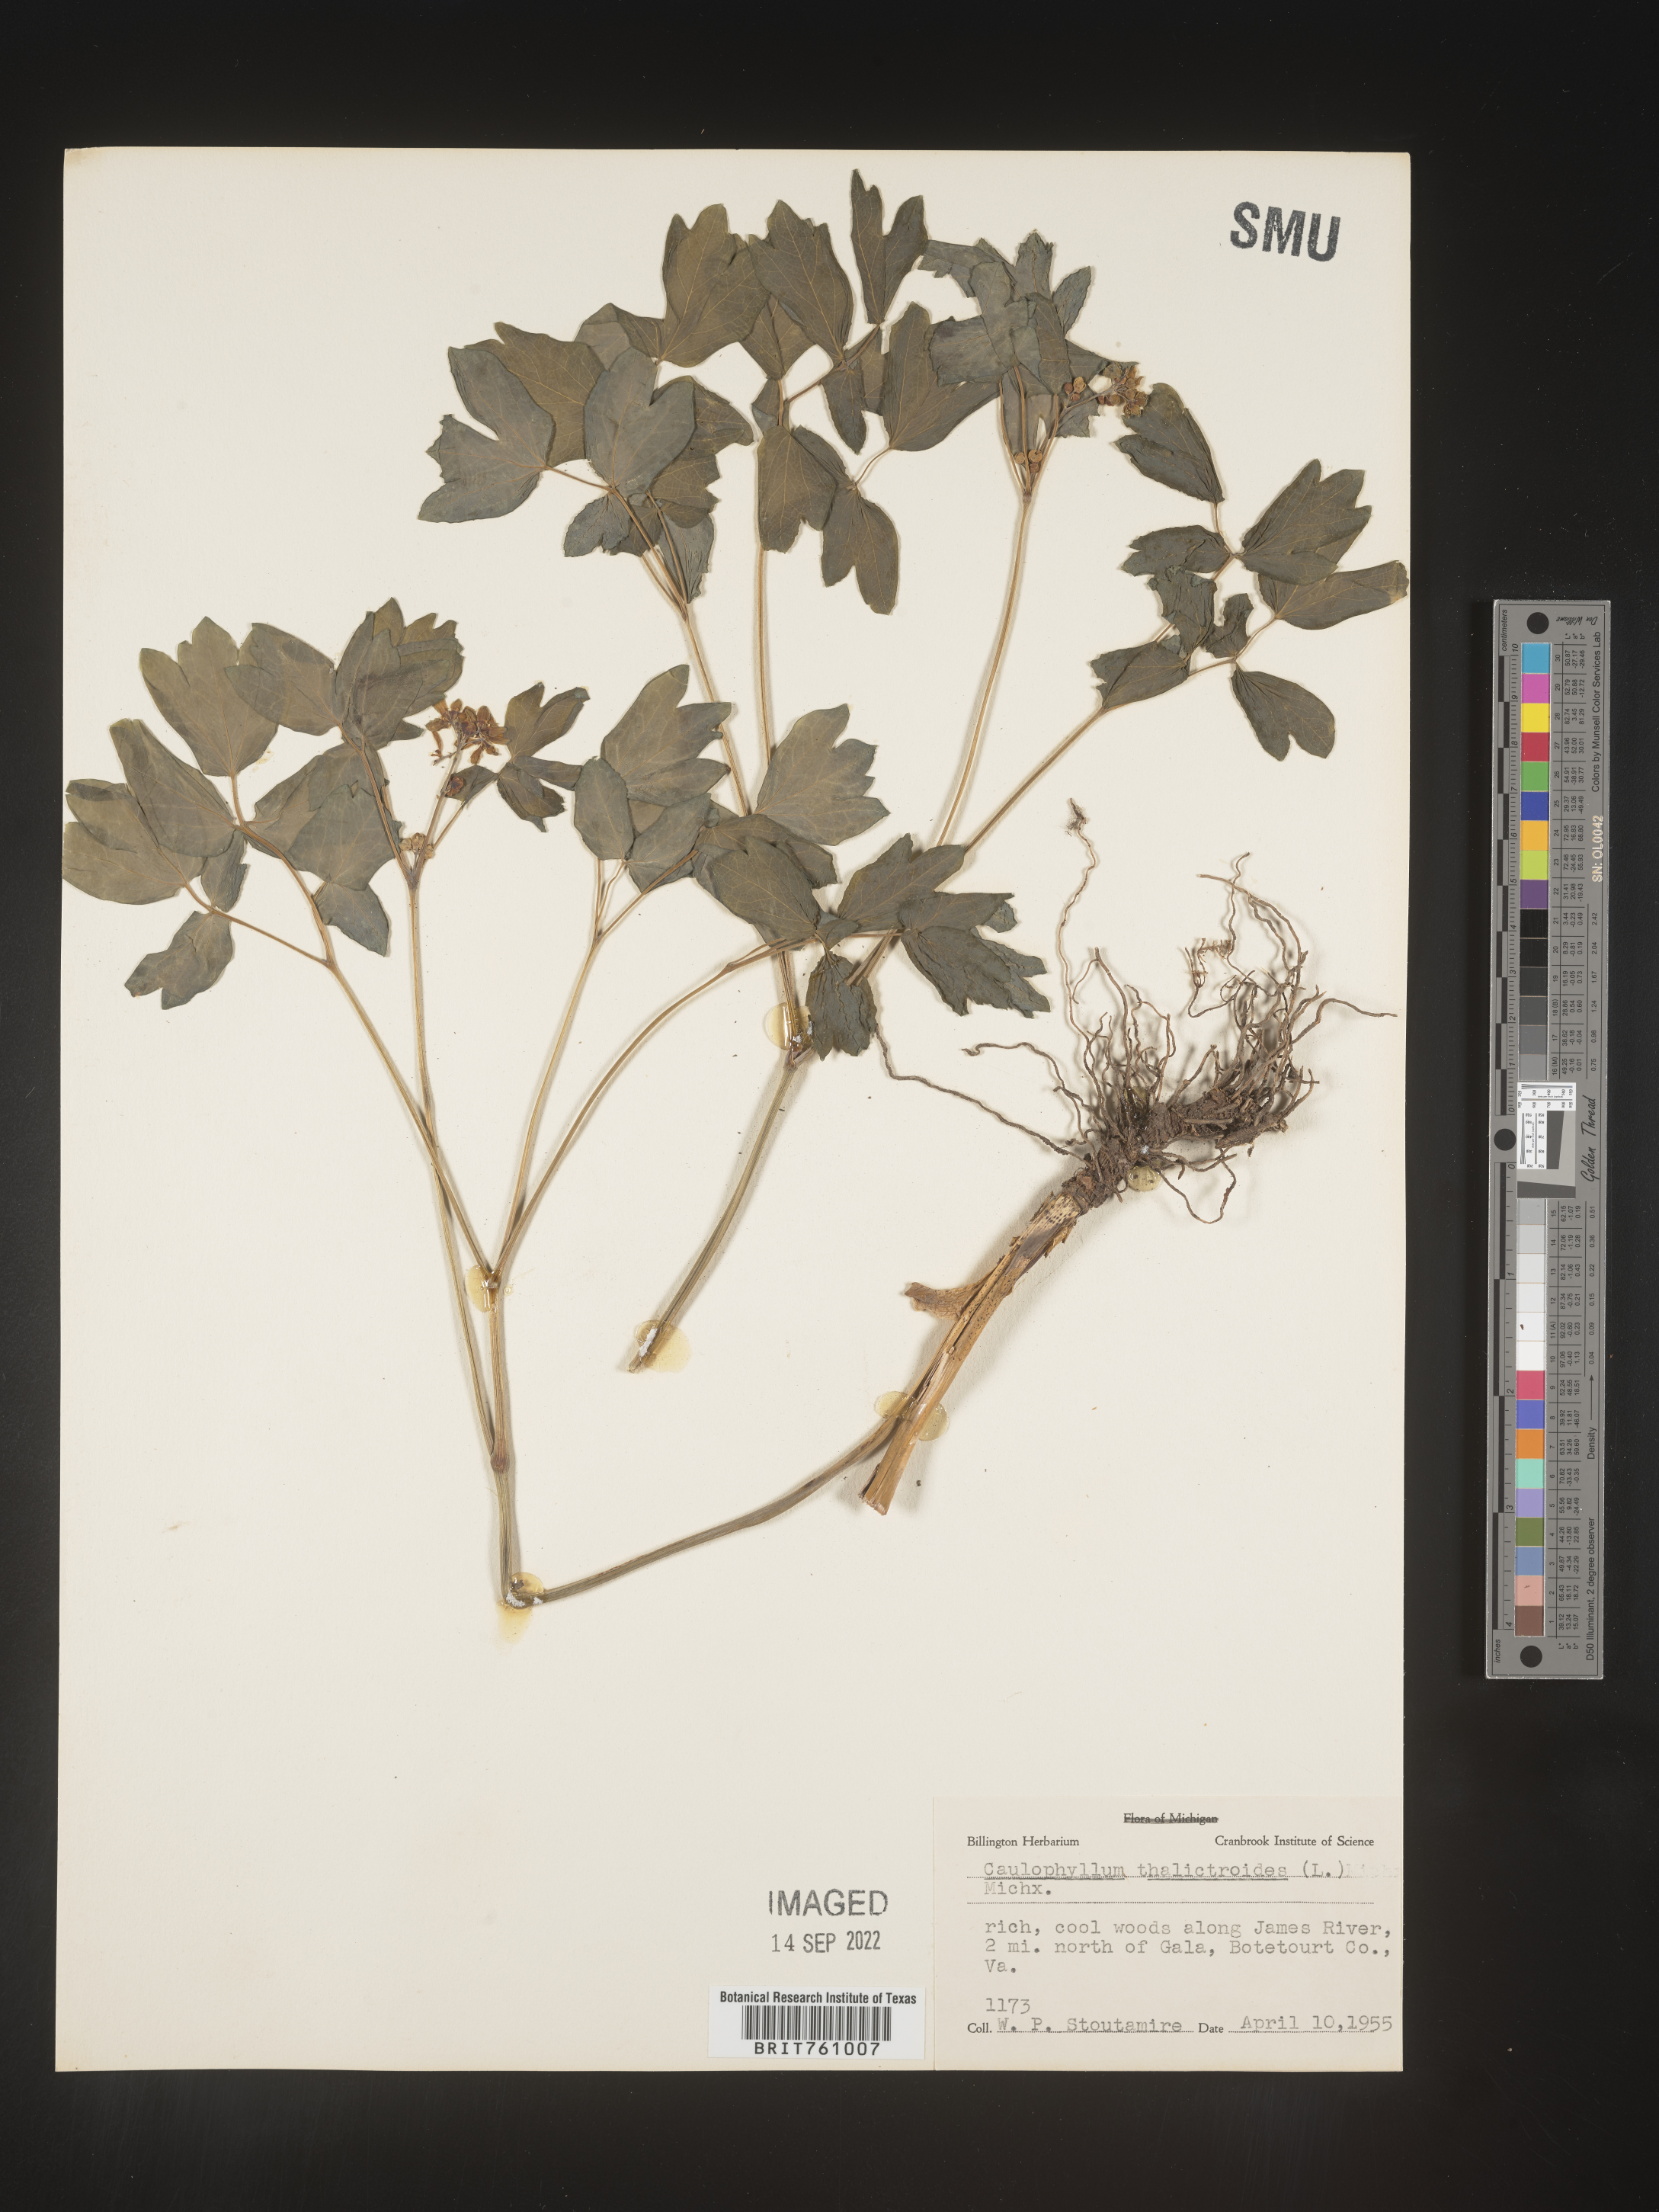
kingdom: Plantae
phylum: Tracheophyta
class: Magnoliopsida
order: Ranunculales
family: Berberidaceae
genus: Caulophyllum
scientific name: Caulophyllum thalictroides
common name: Blue cohosh
